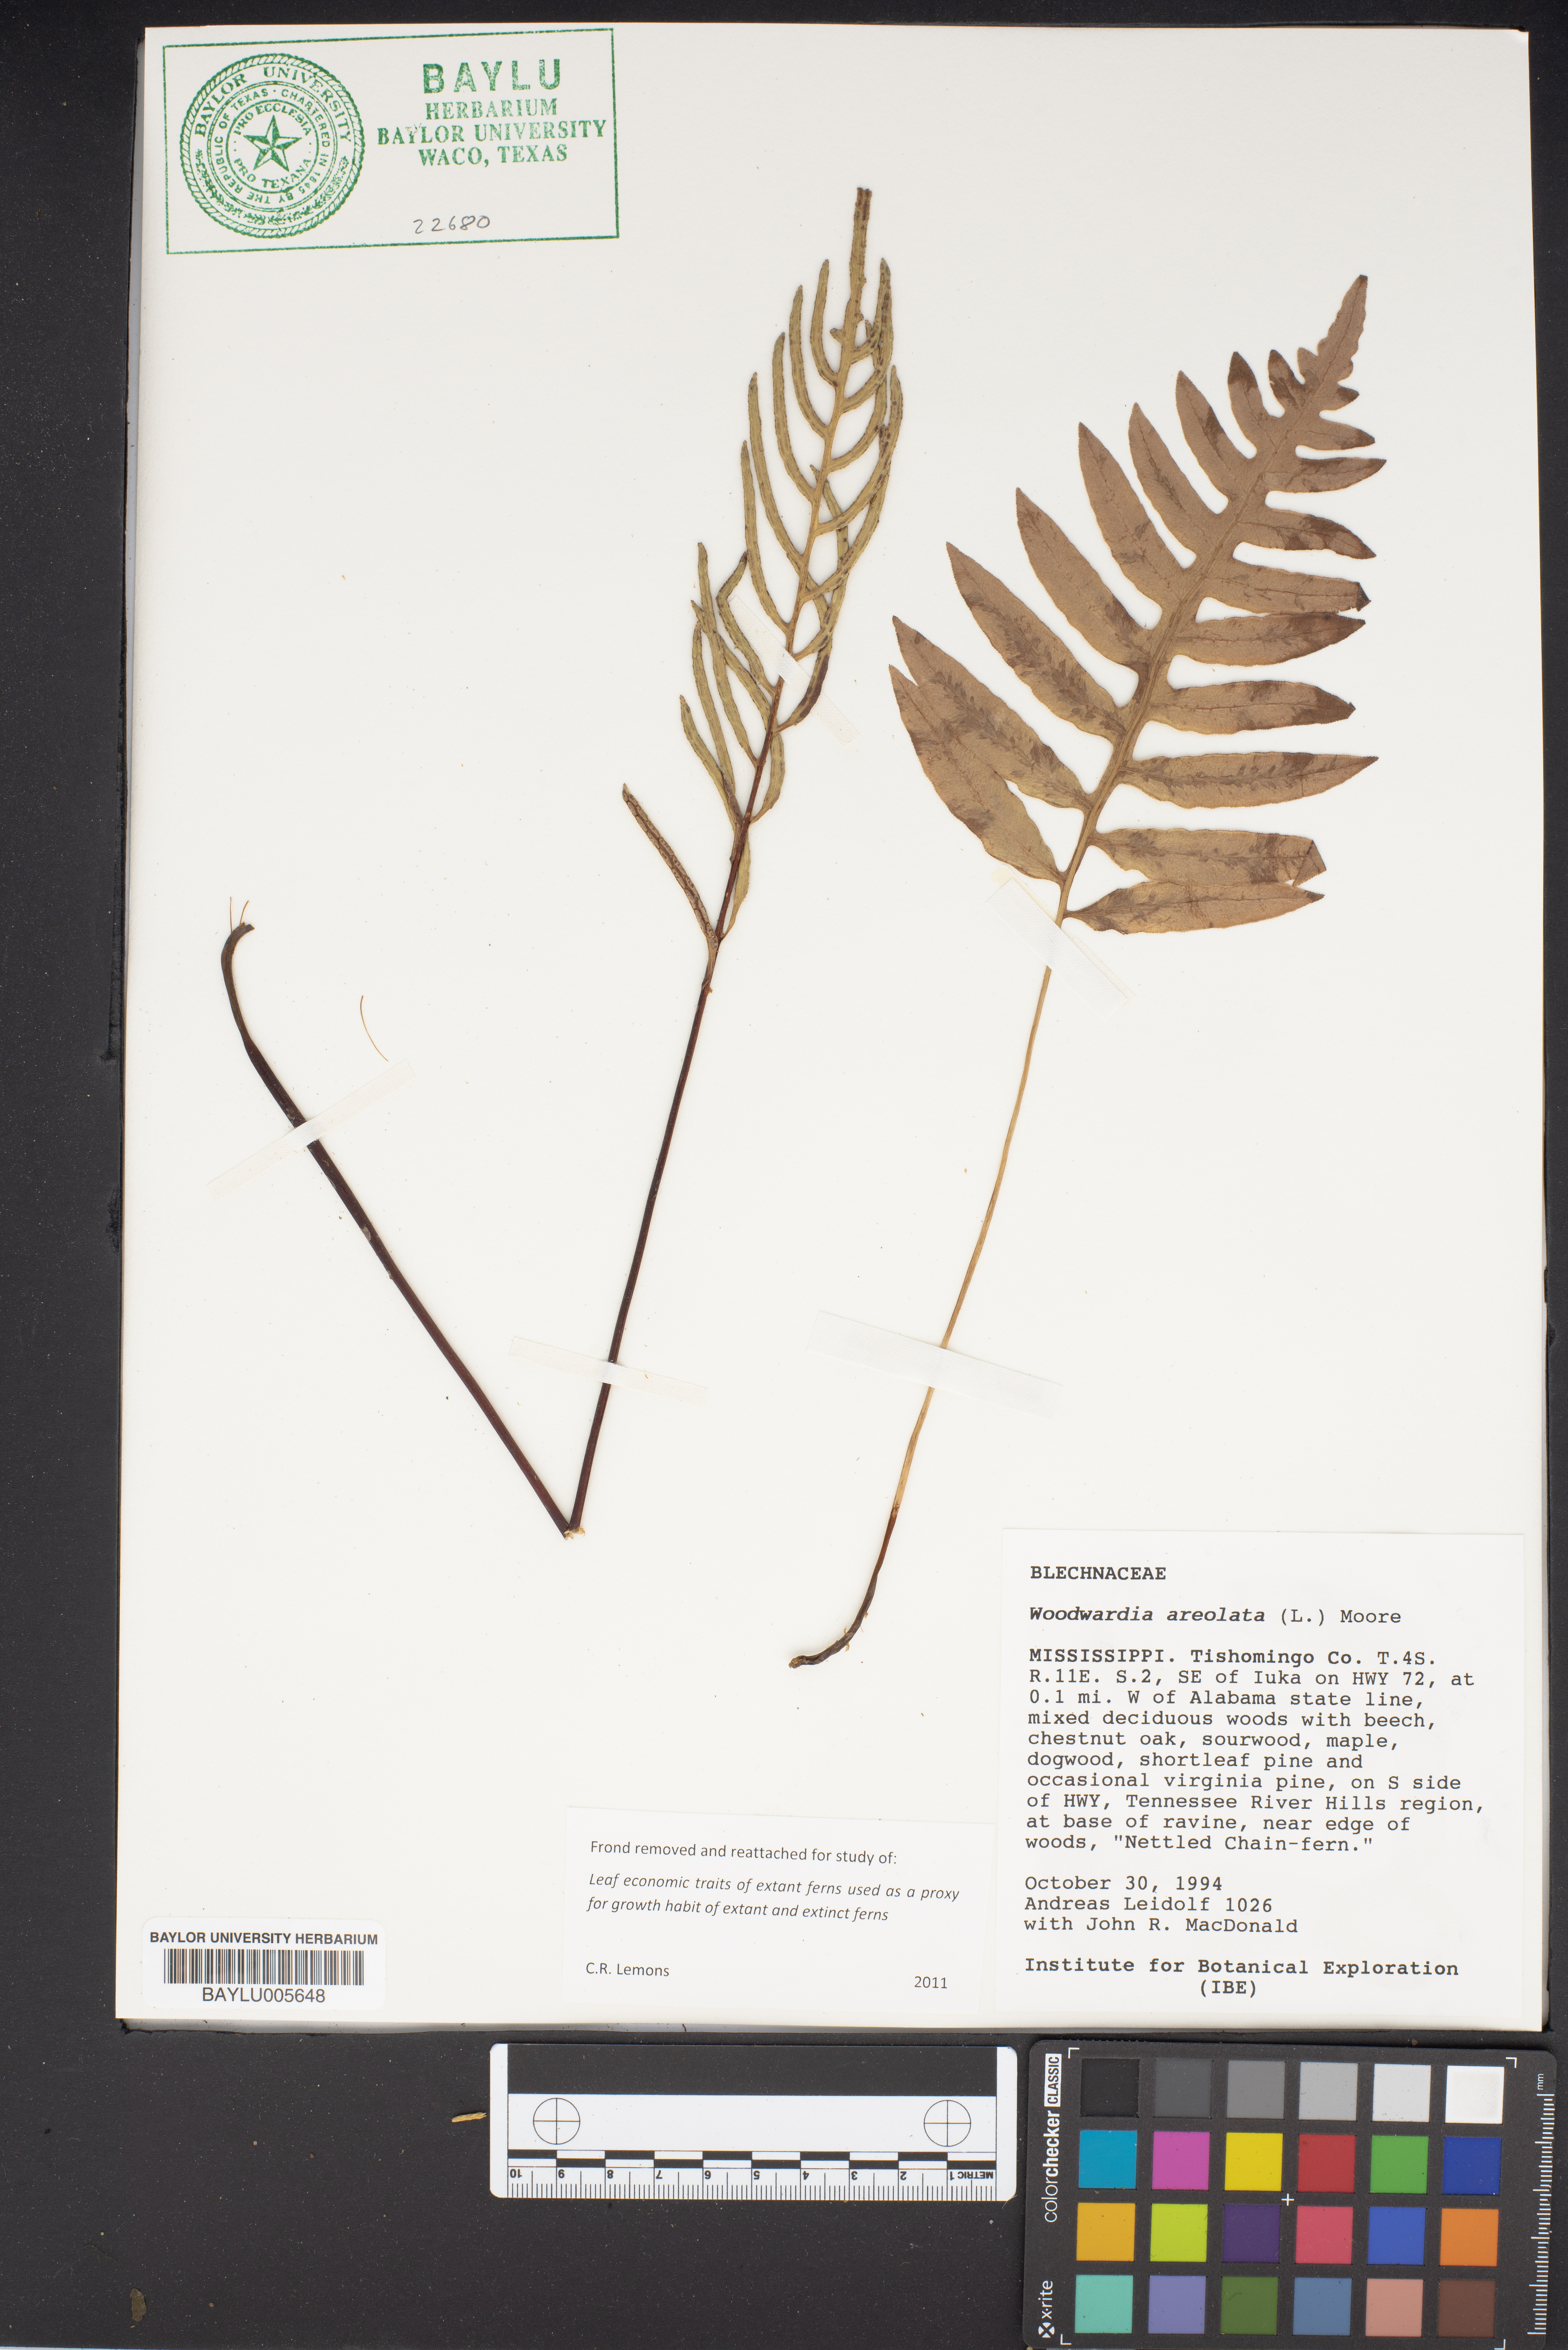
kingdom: Plantae
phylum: Tracheophyta
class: Polypodiopsida
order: Polypodiales
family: Blechnaceae
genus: Lorinseria
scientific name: Lorinseria areolata
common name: Dwarf chain fern
